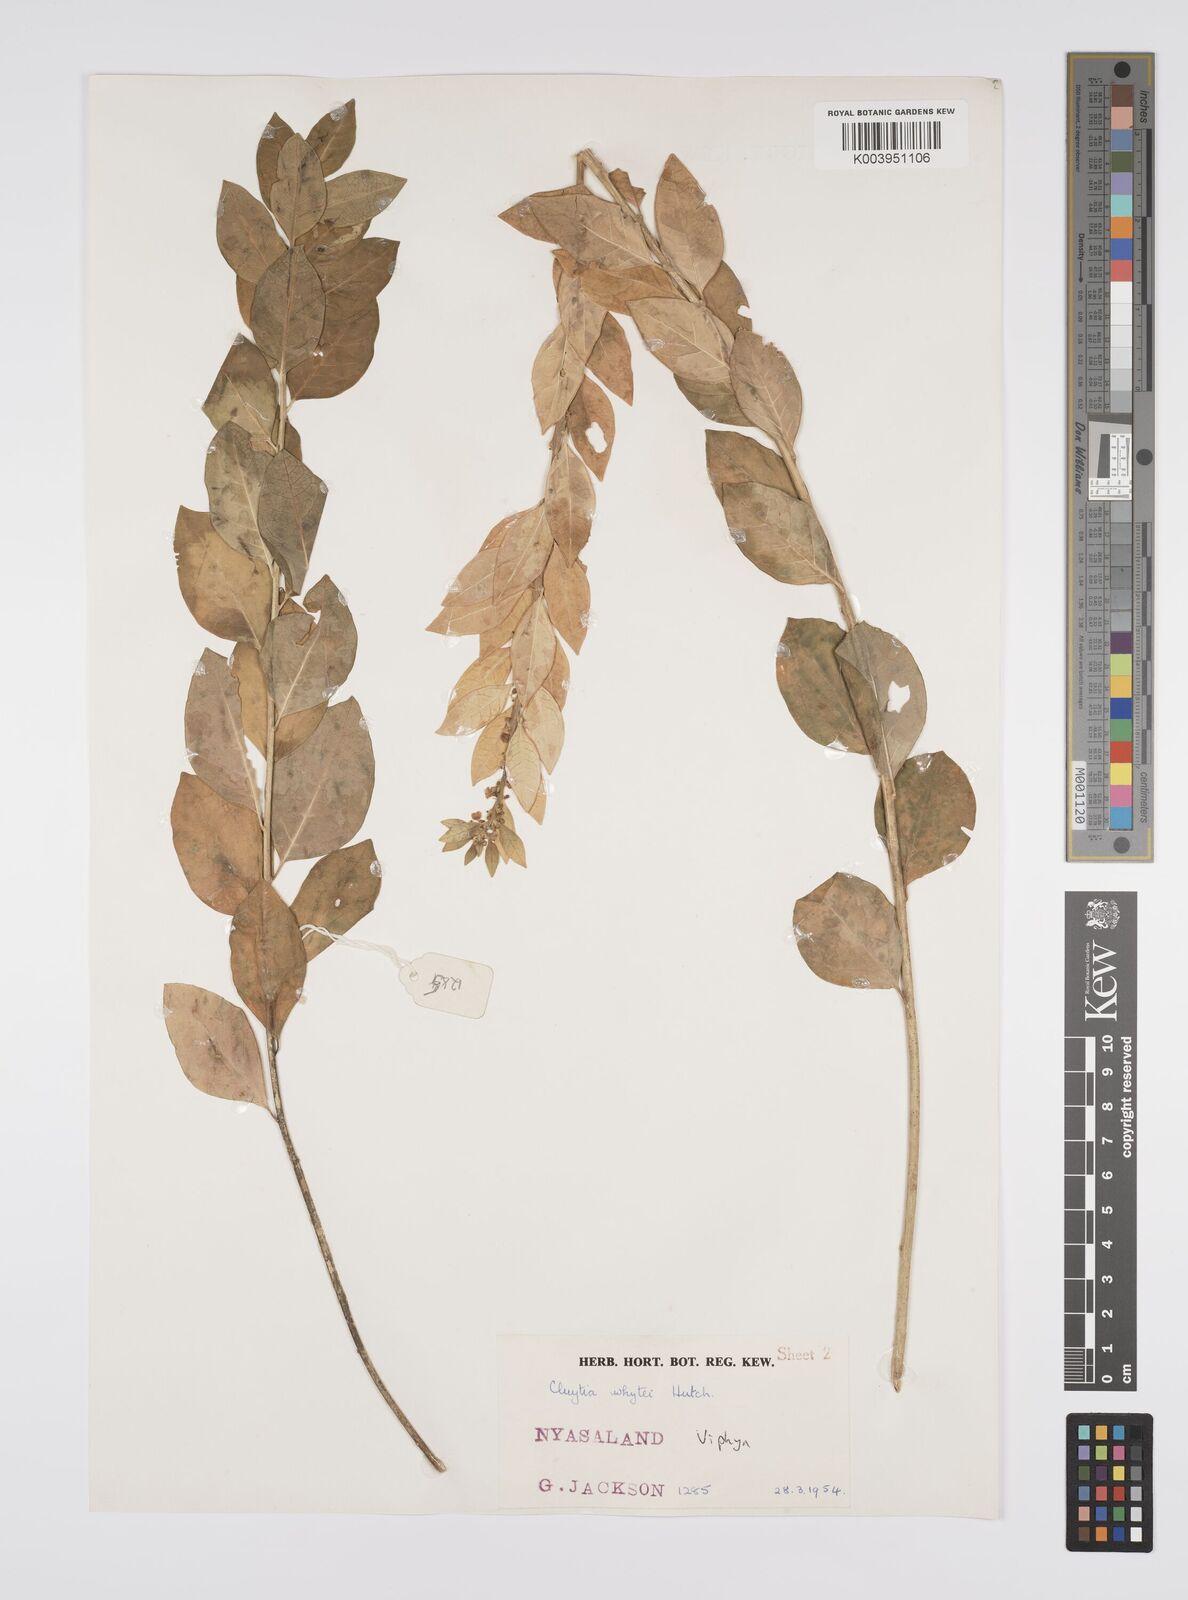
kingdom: Plantae
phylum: Tracheophyta
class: Magnoliopsida
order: Malpighiales
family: Peraceae
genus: Clutia
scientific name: Clutia
